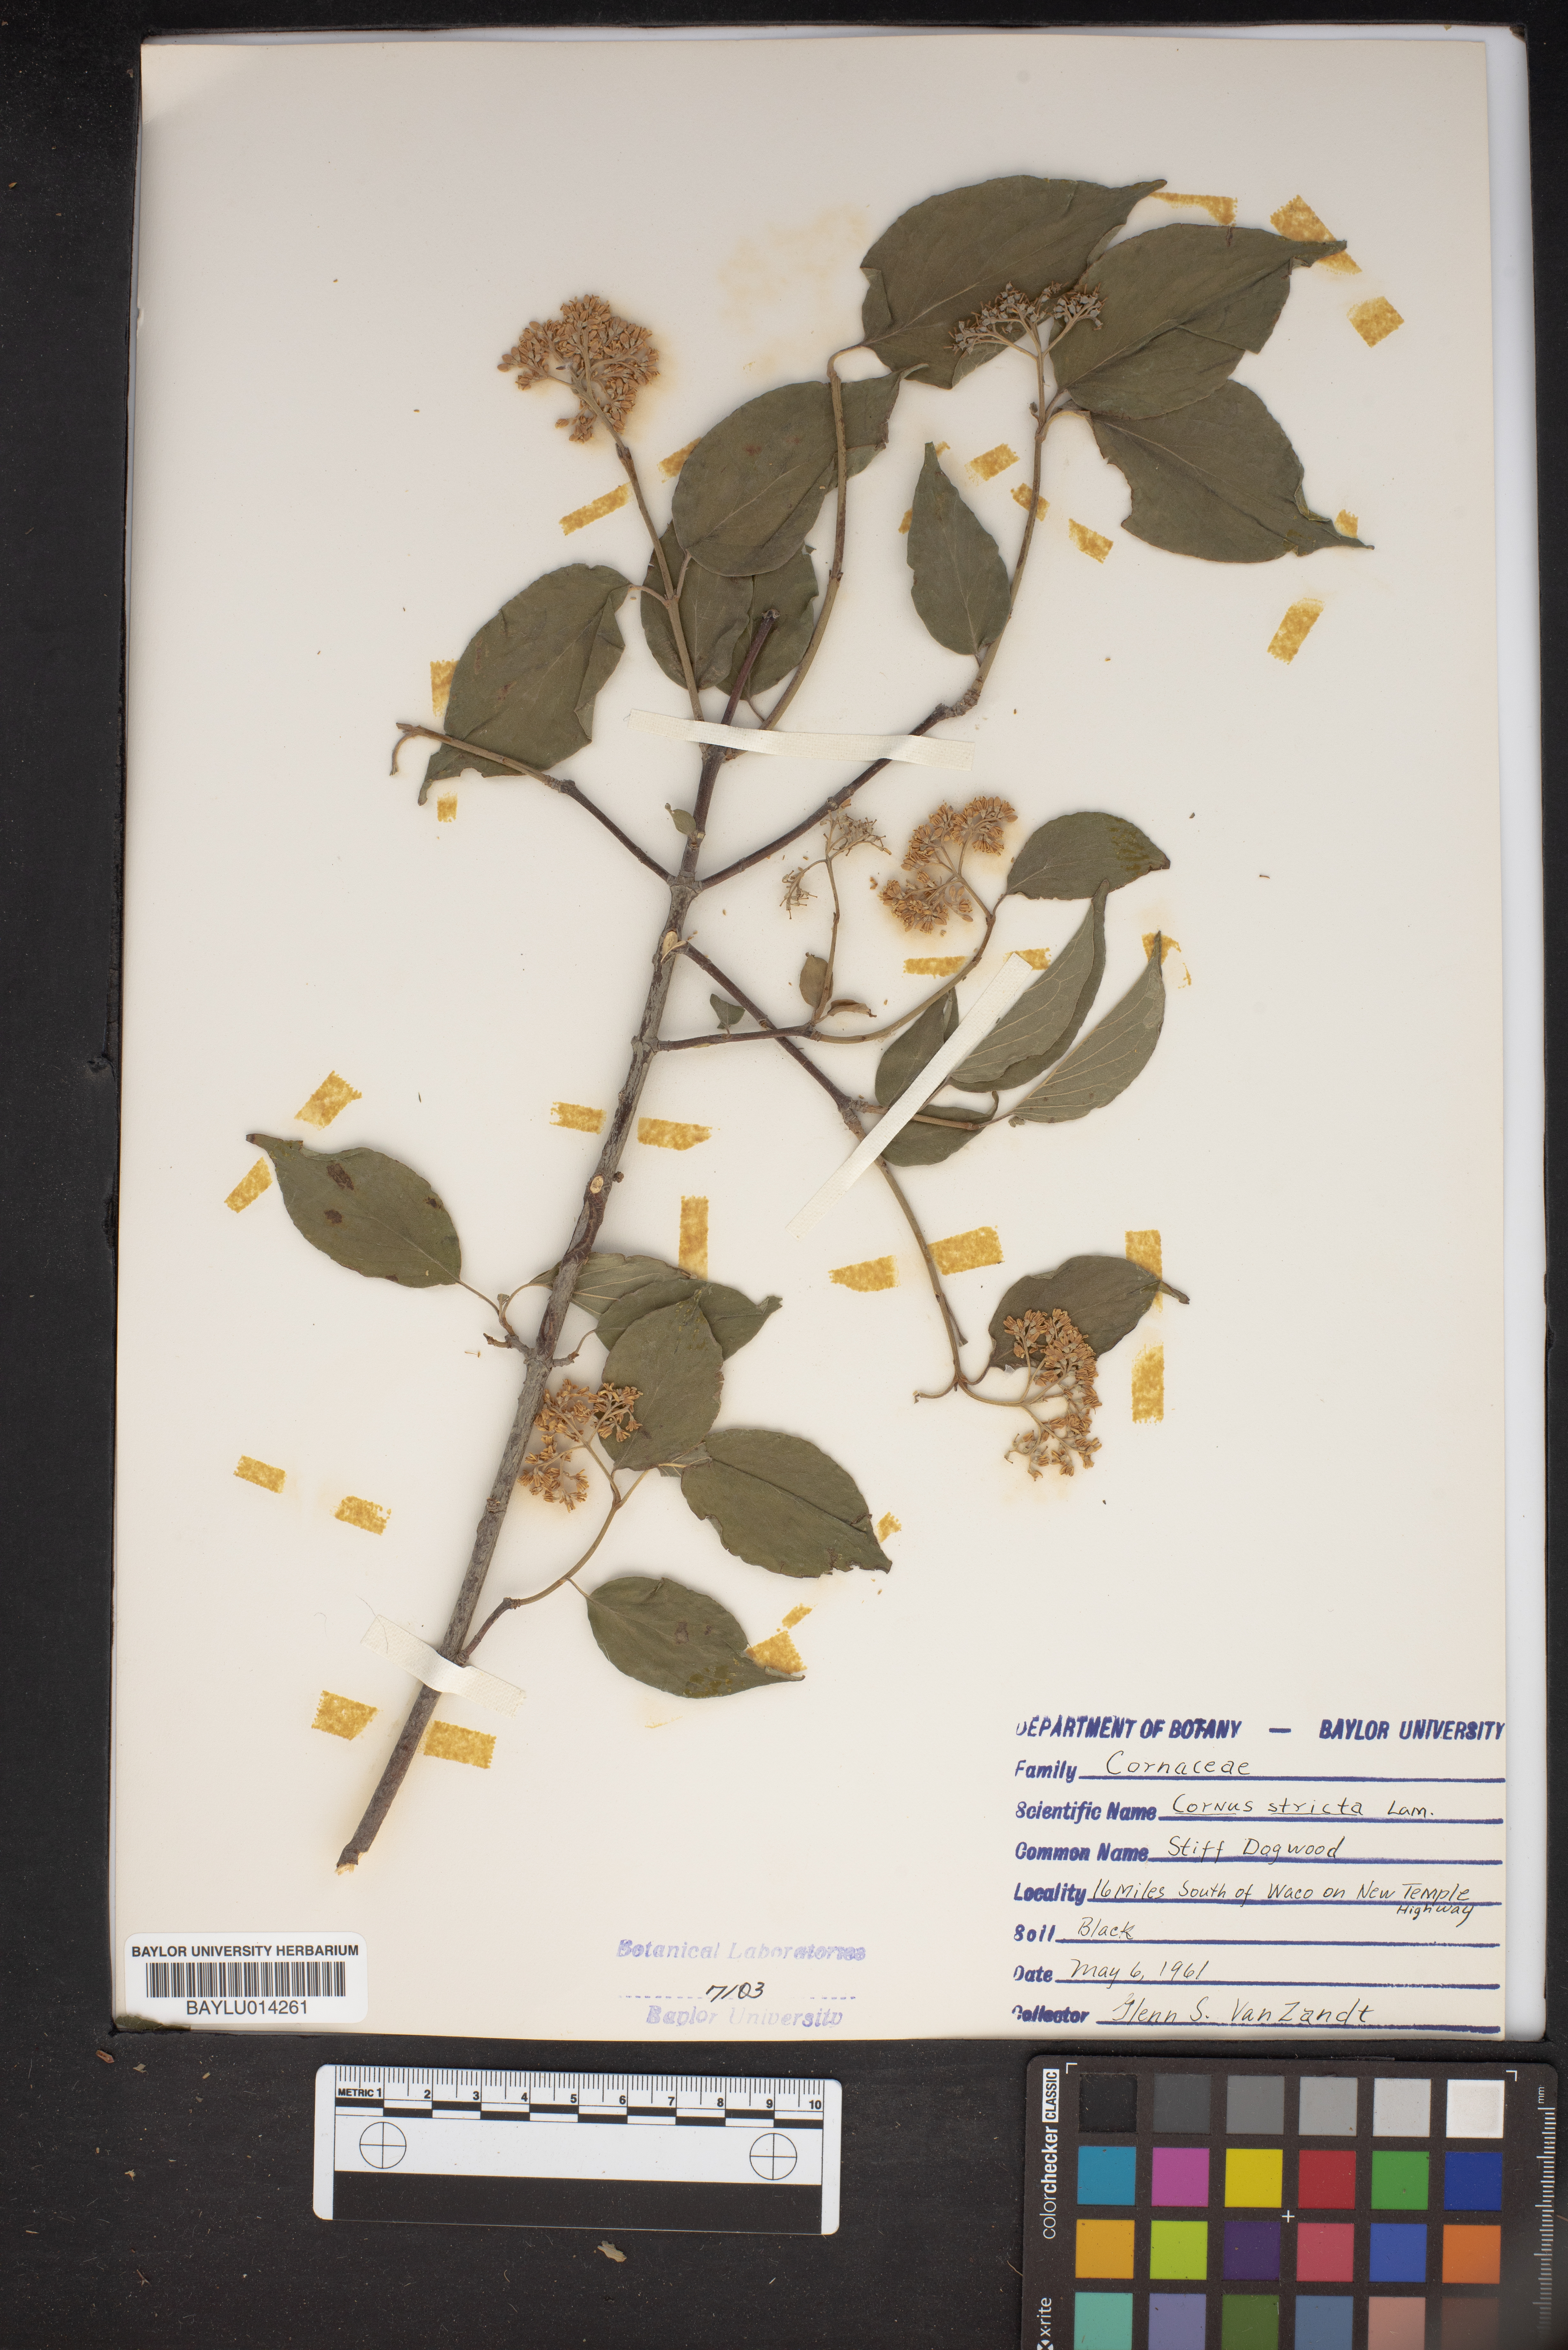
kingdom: Plantae
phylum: Tracheophyta
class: Magnoliopsida
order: Cornales
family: Cornaceae
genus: Cornus
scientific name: Cornus foemina
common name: Swamp dogwood
